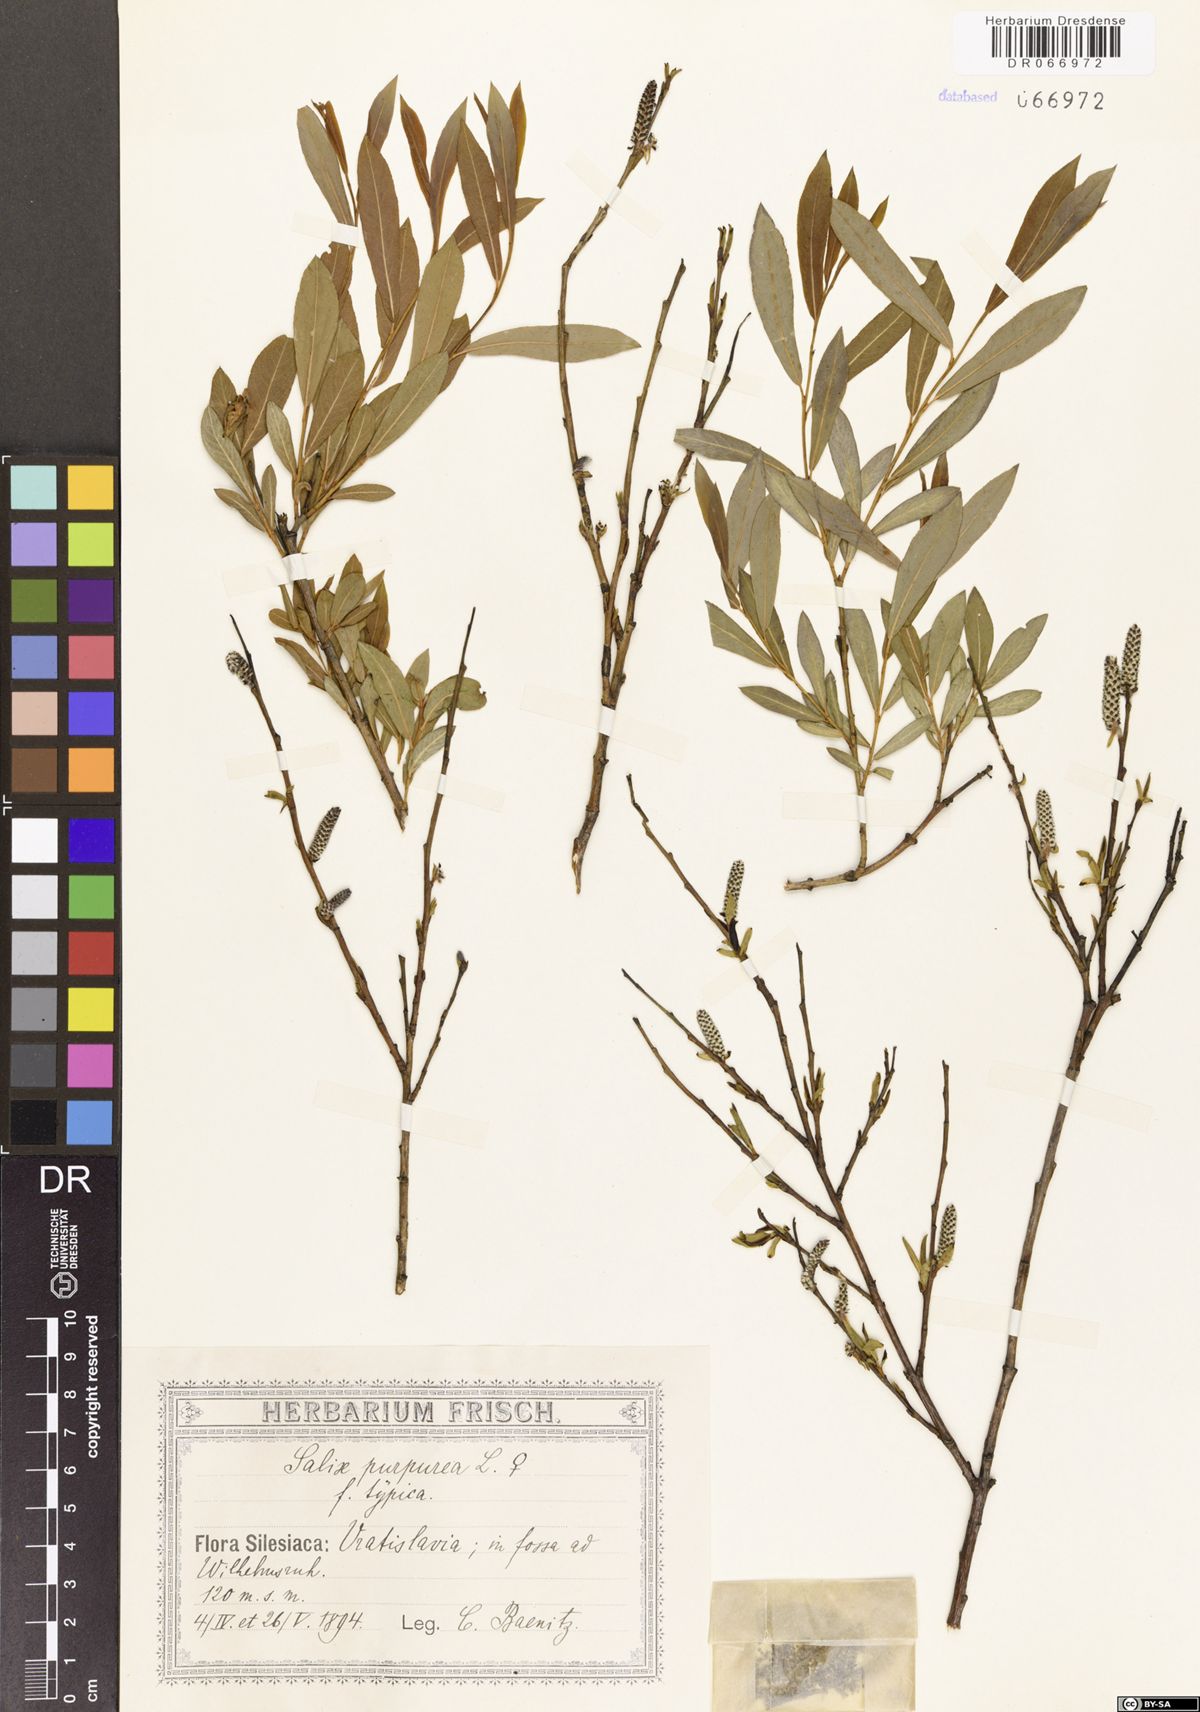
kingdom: Plantae
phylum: Tracheophyta
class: Magnoliopsida
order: Malpighiales
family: Salicaceae
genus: Salix
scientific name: Salix purpurea
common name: Purple willow
